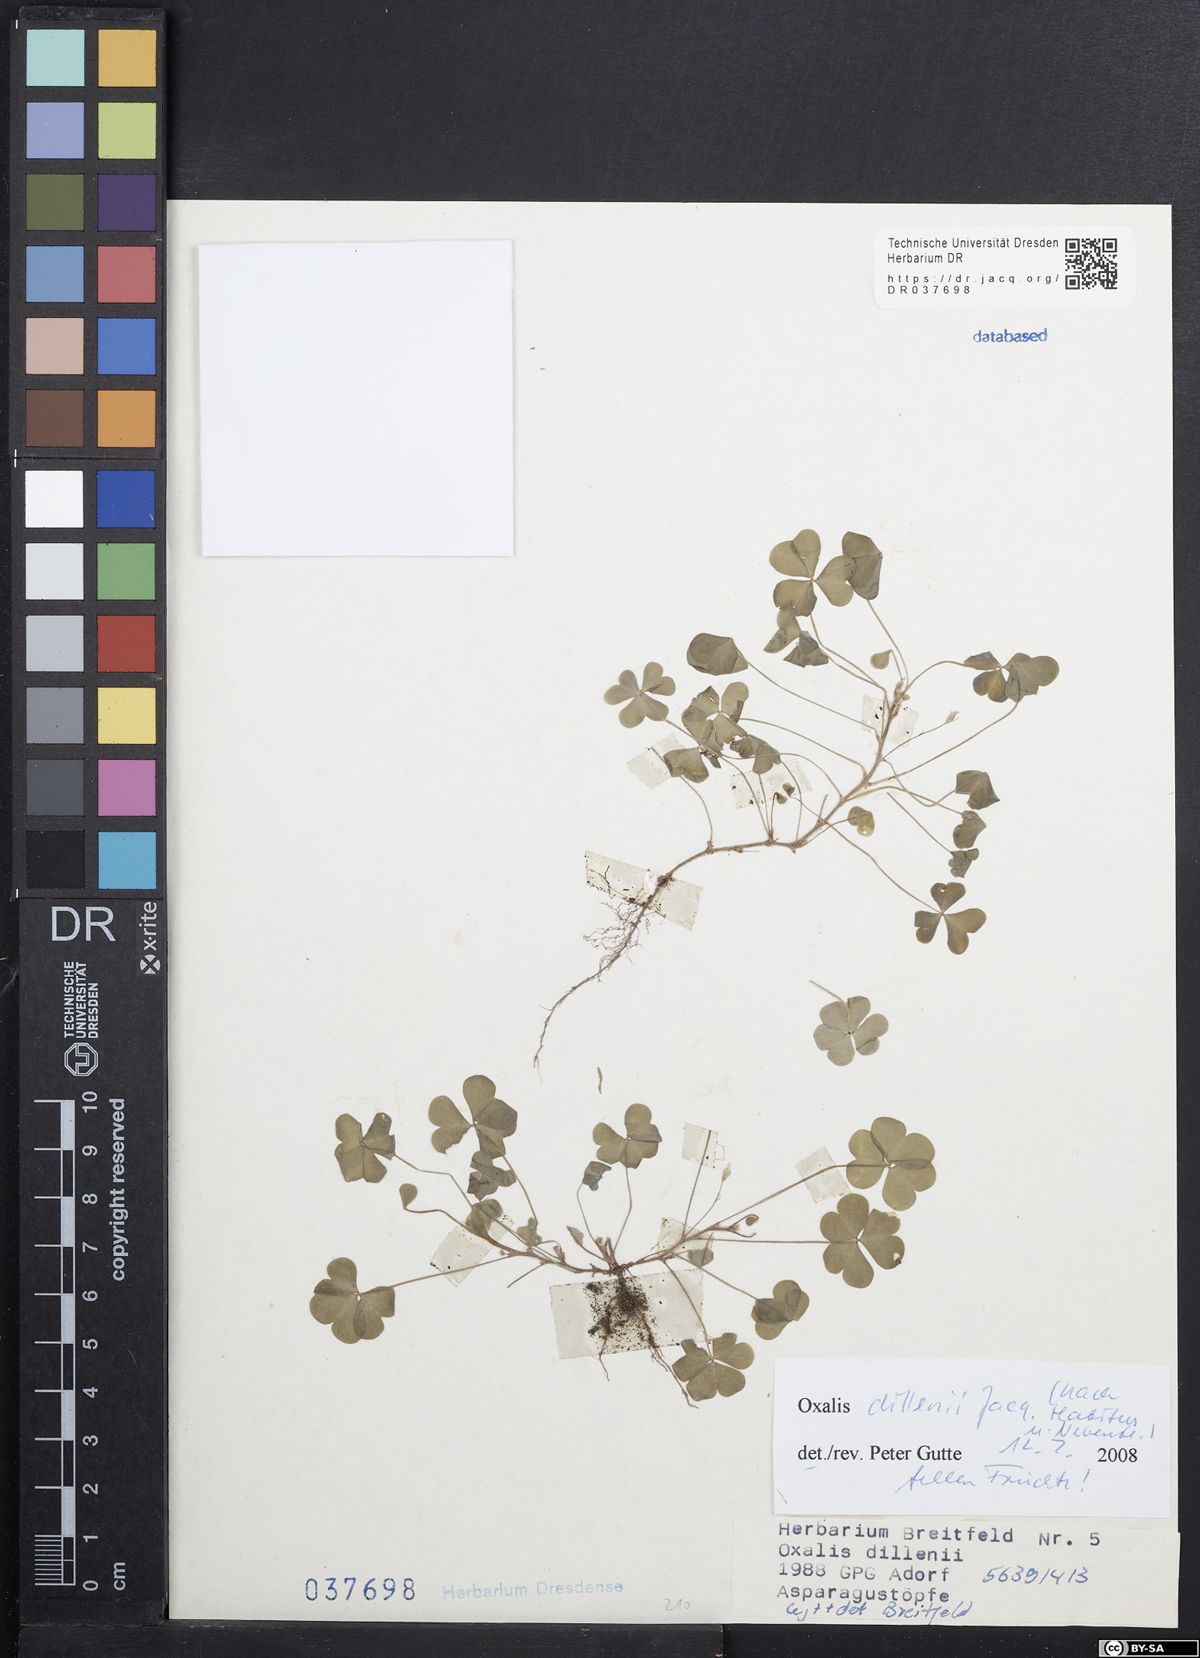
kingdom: Plantae
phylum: Tracheophyta
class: Magnoliopsida
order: Oxalidales
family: Oxalidaceae
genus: Oxalis
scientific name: Oxalis dillenii
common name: Sussex yellow-sorrel
